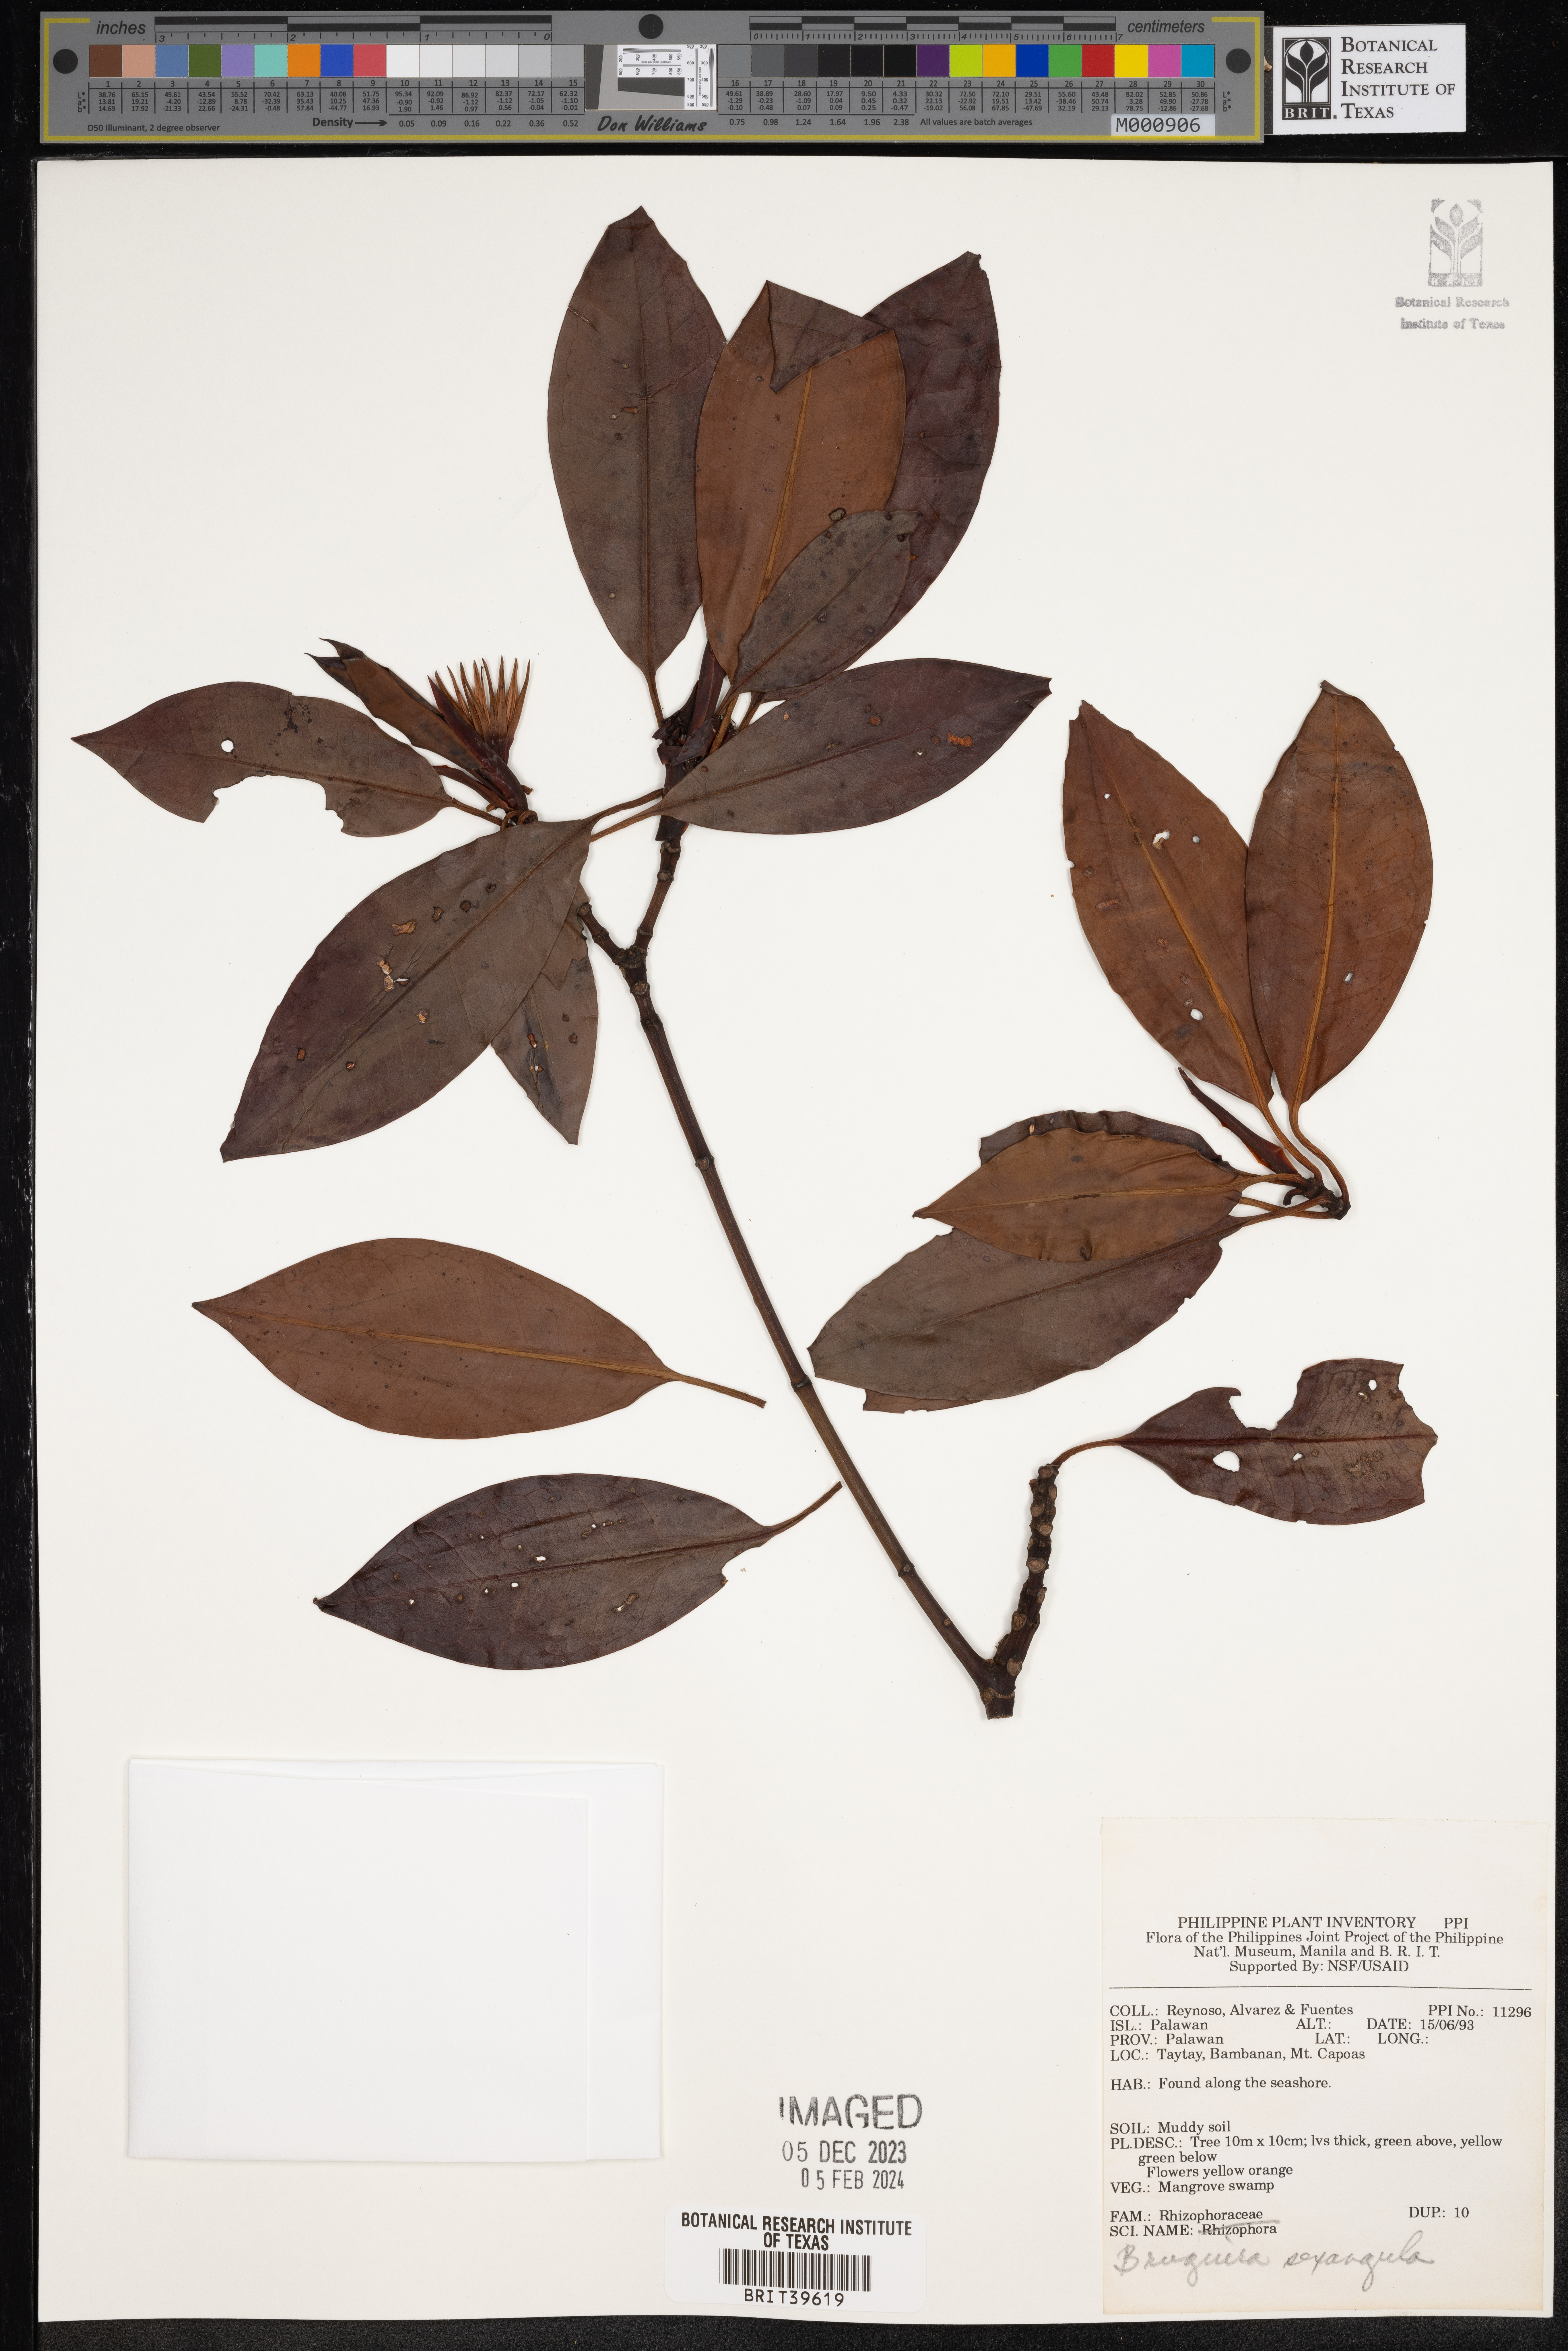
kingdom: Plantae
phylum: Tracheophyta
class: Magnoliopsida
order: Malpighiales
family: Rhizophoraceae
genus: Bruguiera
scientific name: Bruguiera sexangula
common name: Oriental mangrove
